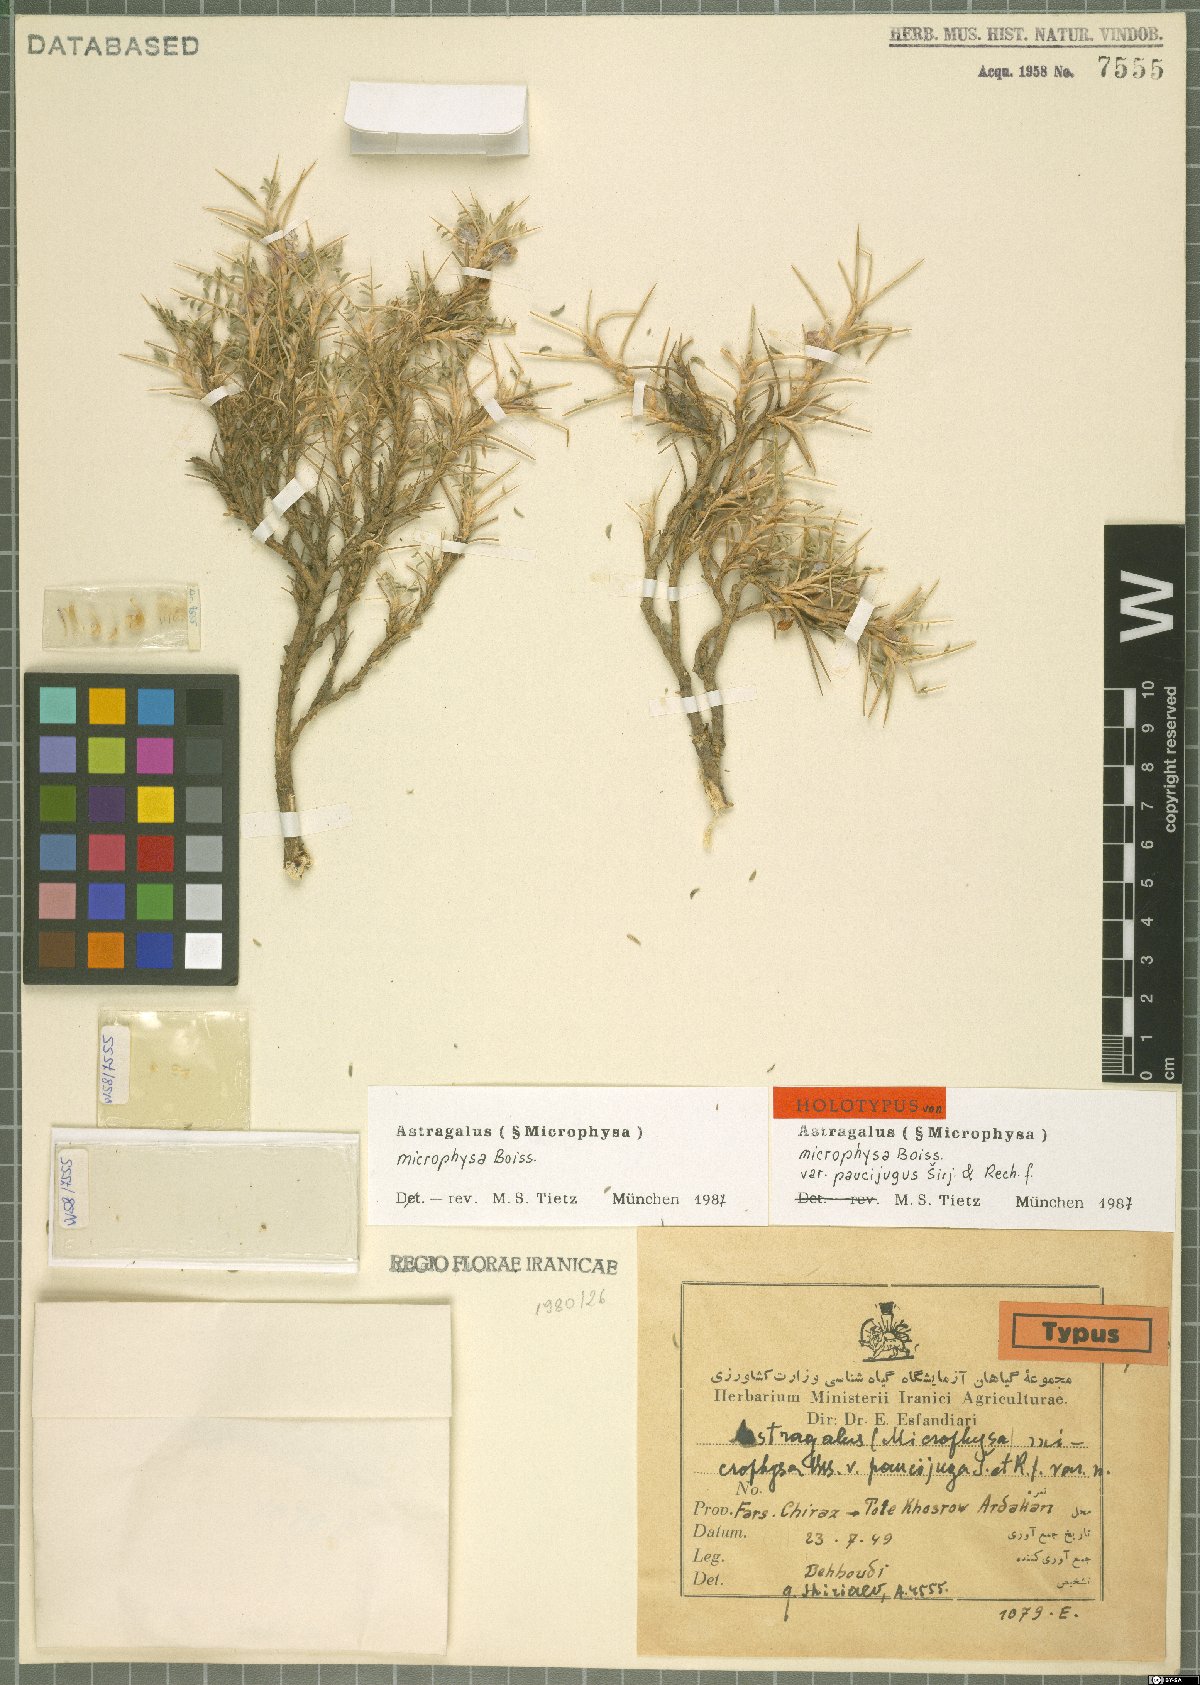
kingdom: Plantae
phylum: Tracheophyta
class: Magnoliopsida
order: Fabales
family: Fabaceae
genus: Astragalus
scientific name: Astragalus microphysa
